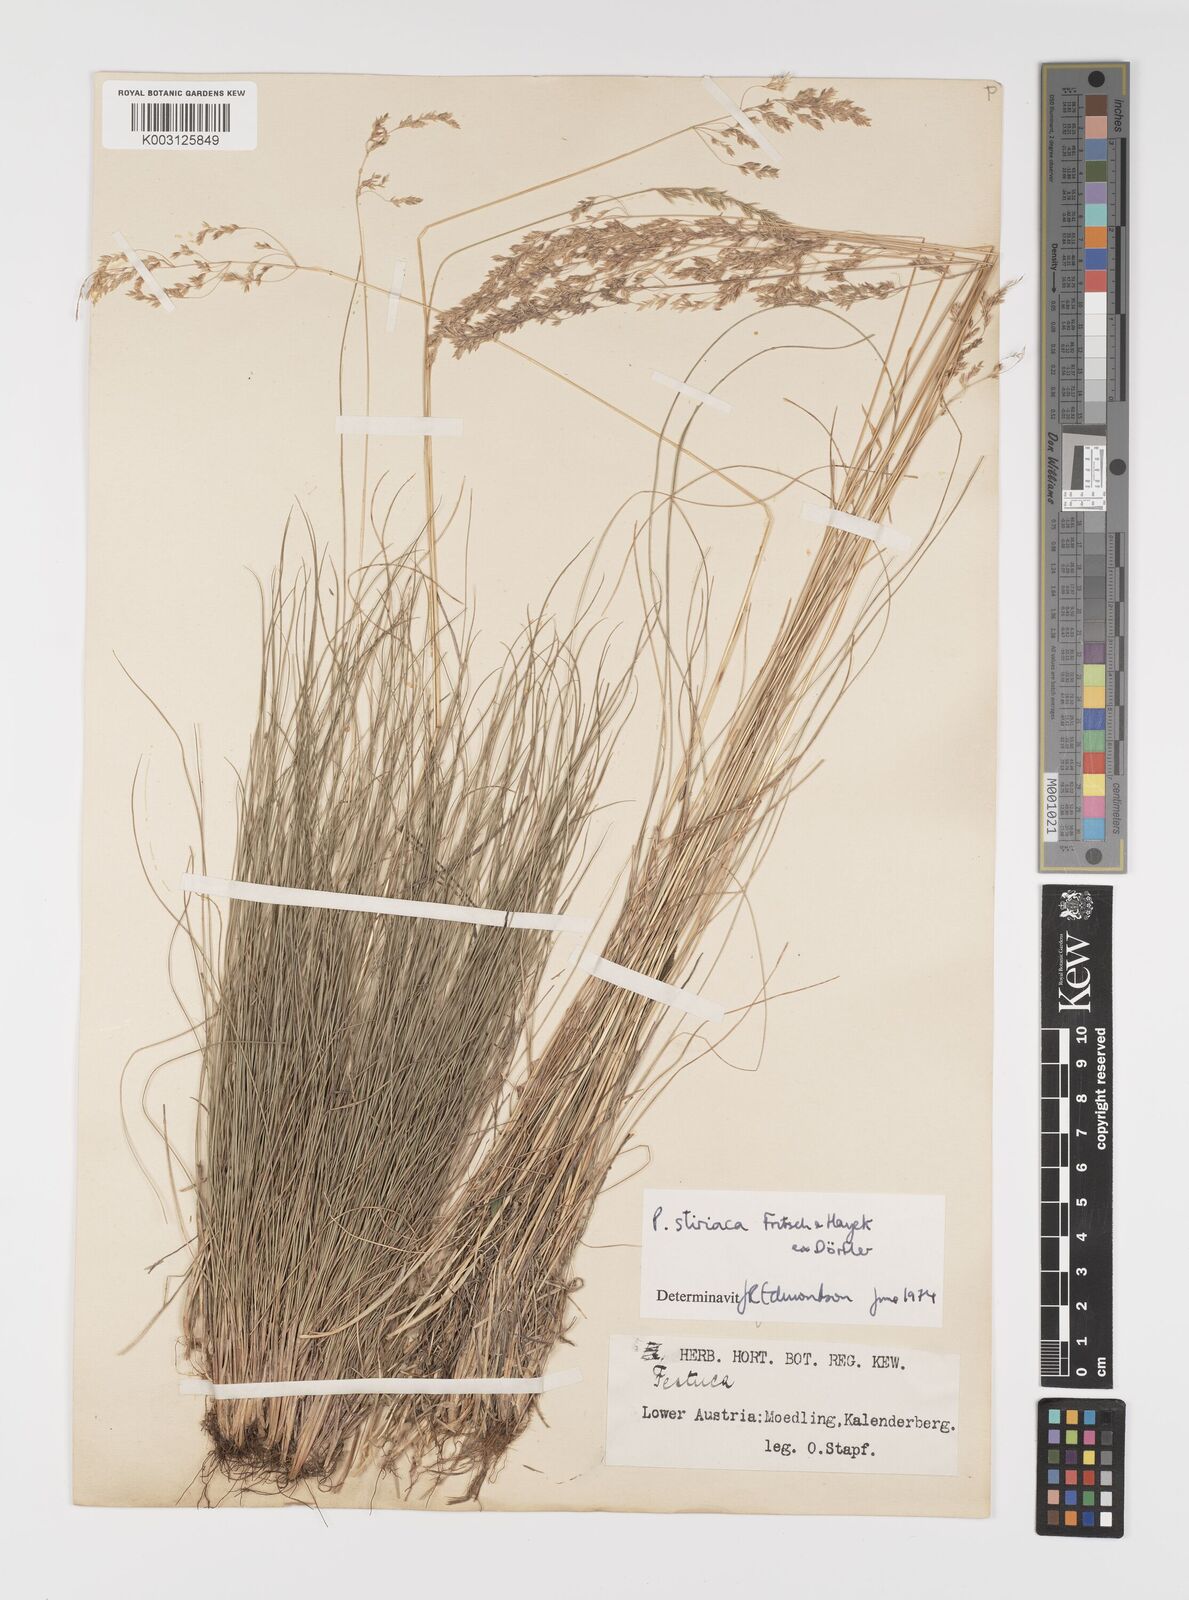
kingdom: Plantae
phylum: Tracheophyta
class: Liliopsida
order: Poales
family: Poaceae
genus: Poa
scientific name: Poa stiriaca
